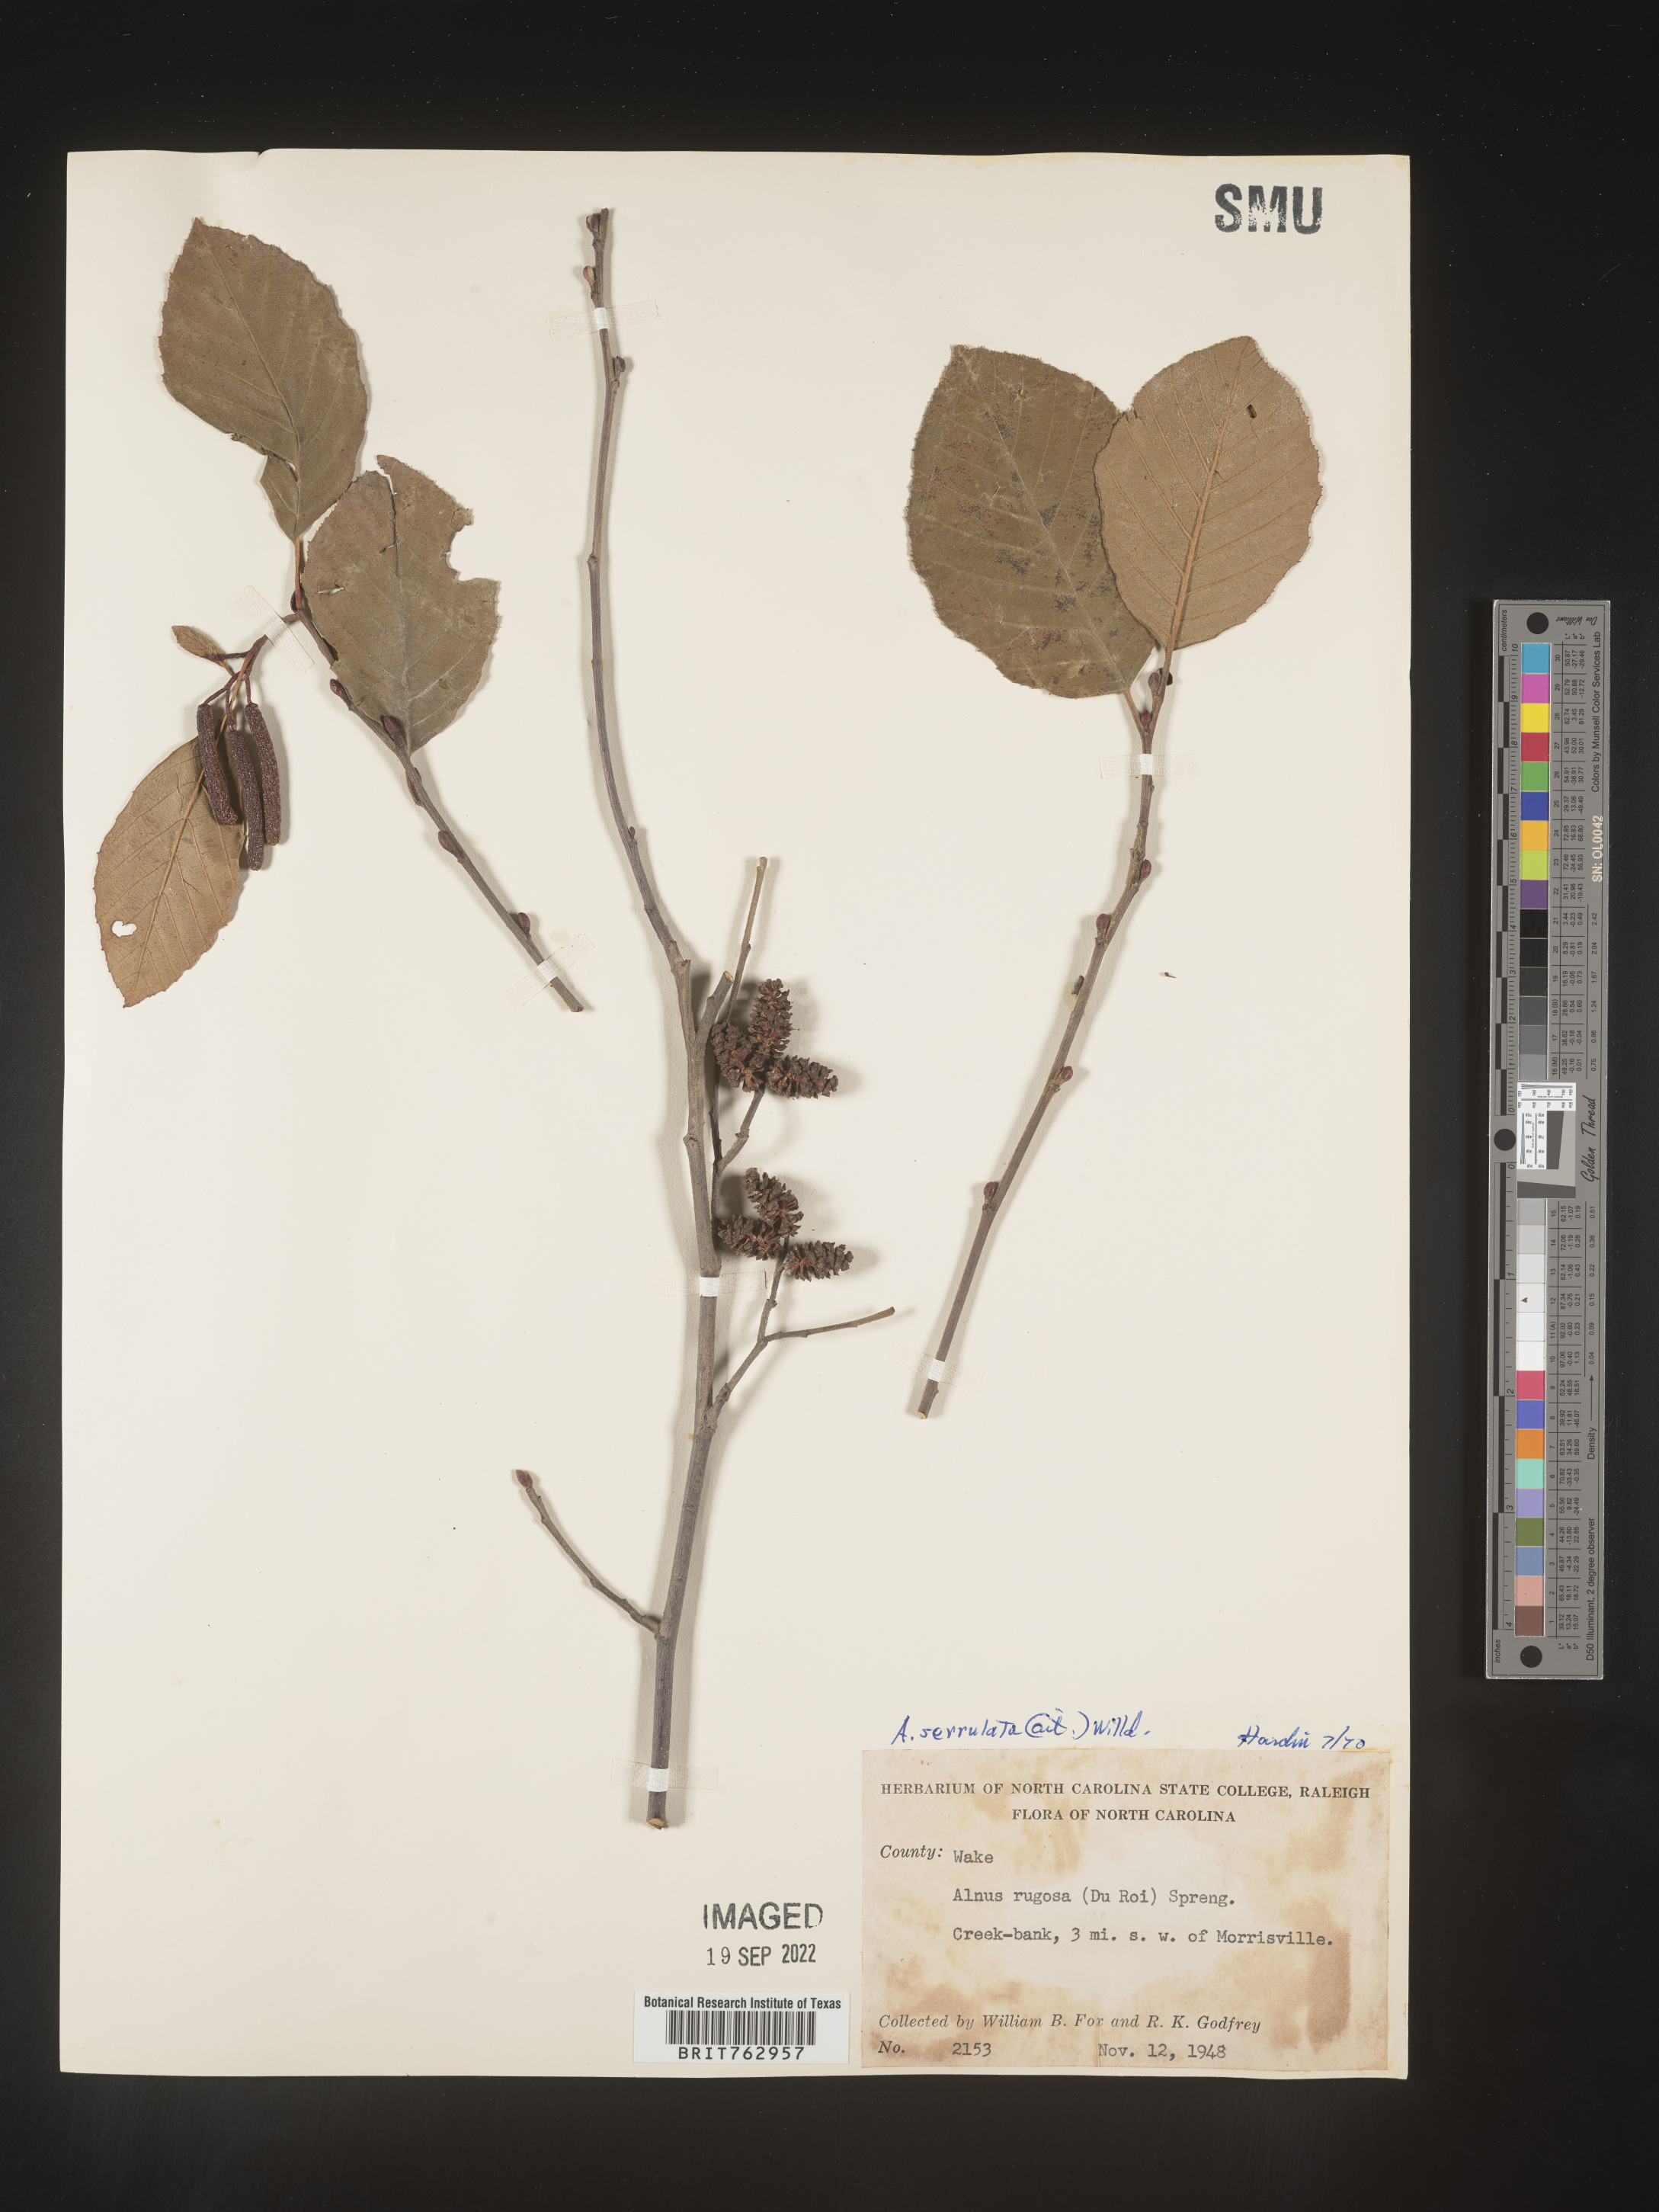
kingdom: Plantae
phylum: Tracheophyta
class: Magnoliopsida
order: Fagales
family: Betulaceae
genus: Alnus
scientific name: Alnus serrulata
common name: Hazel alder
